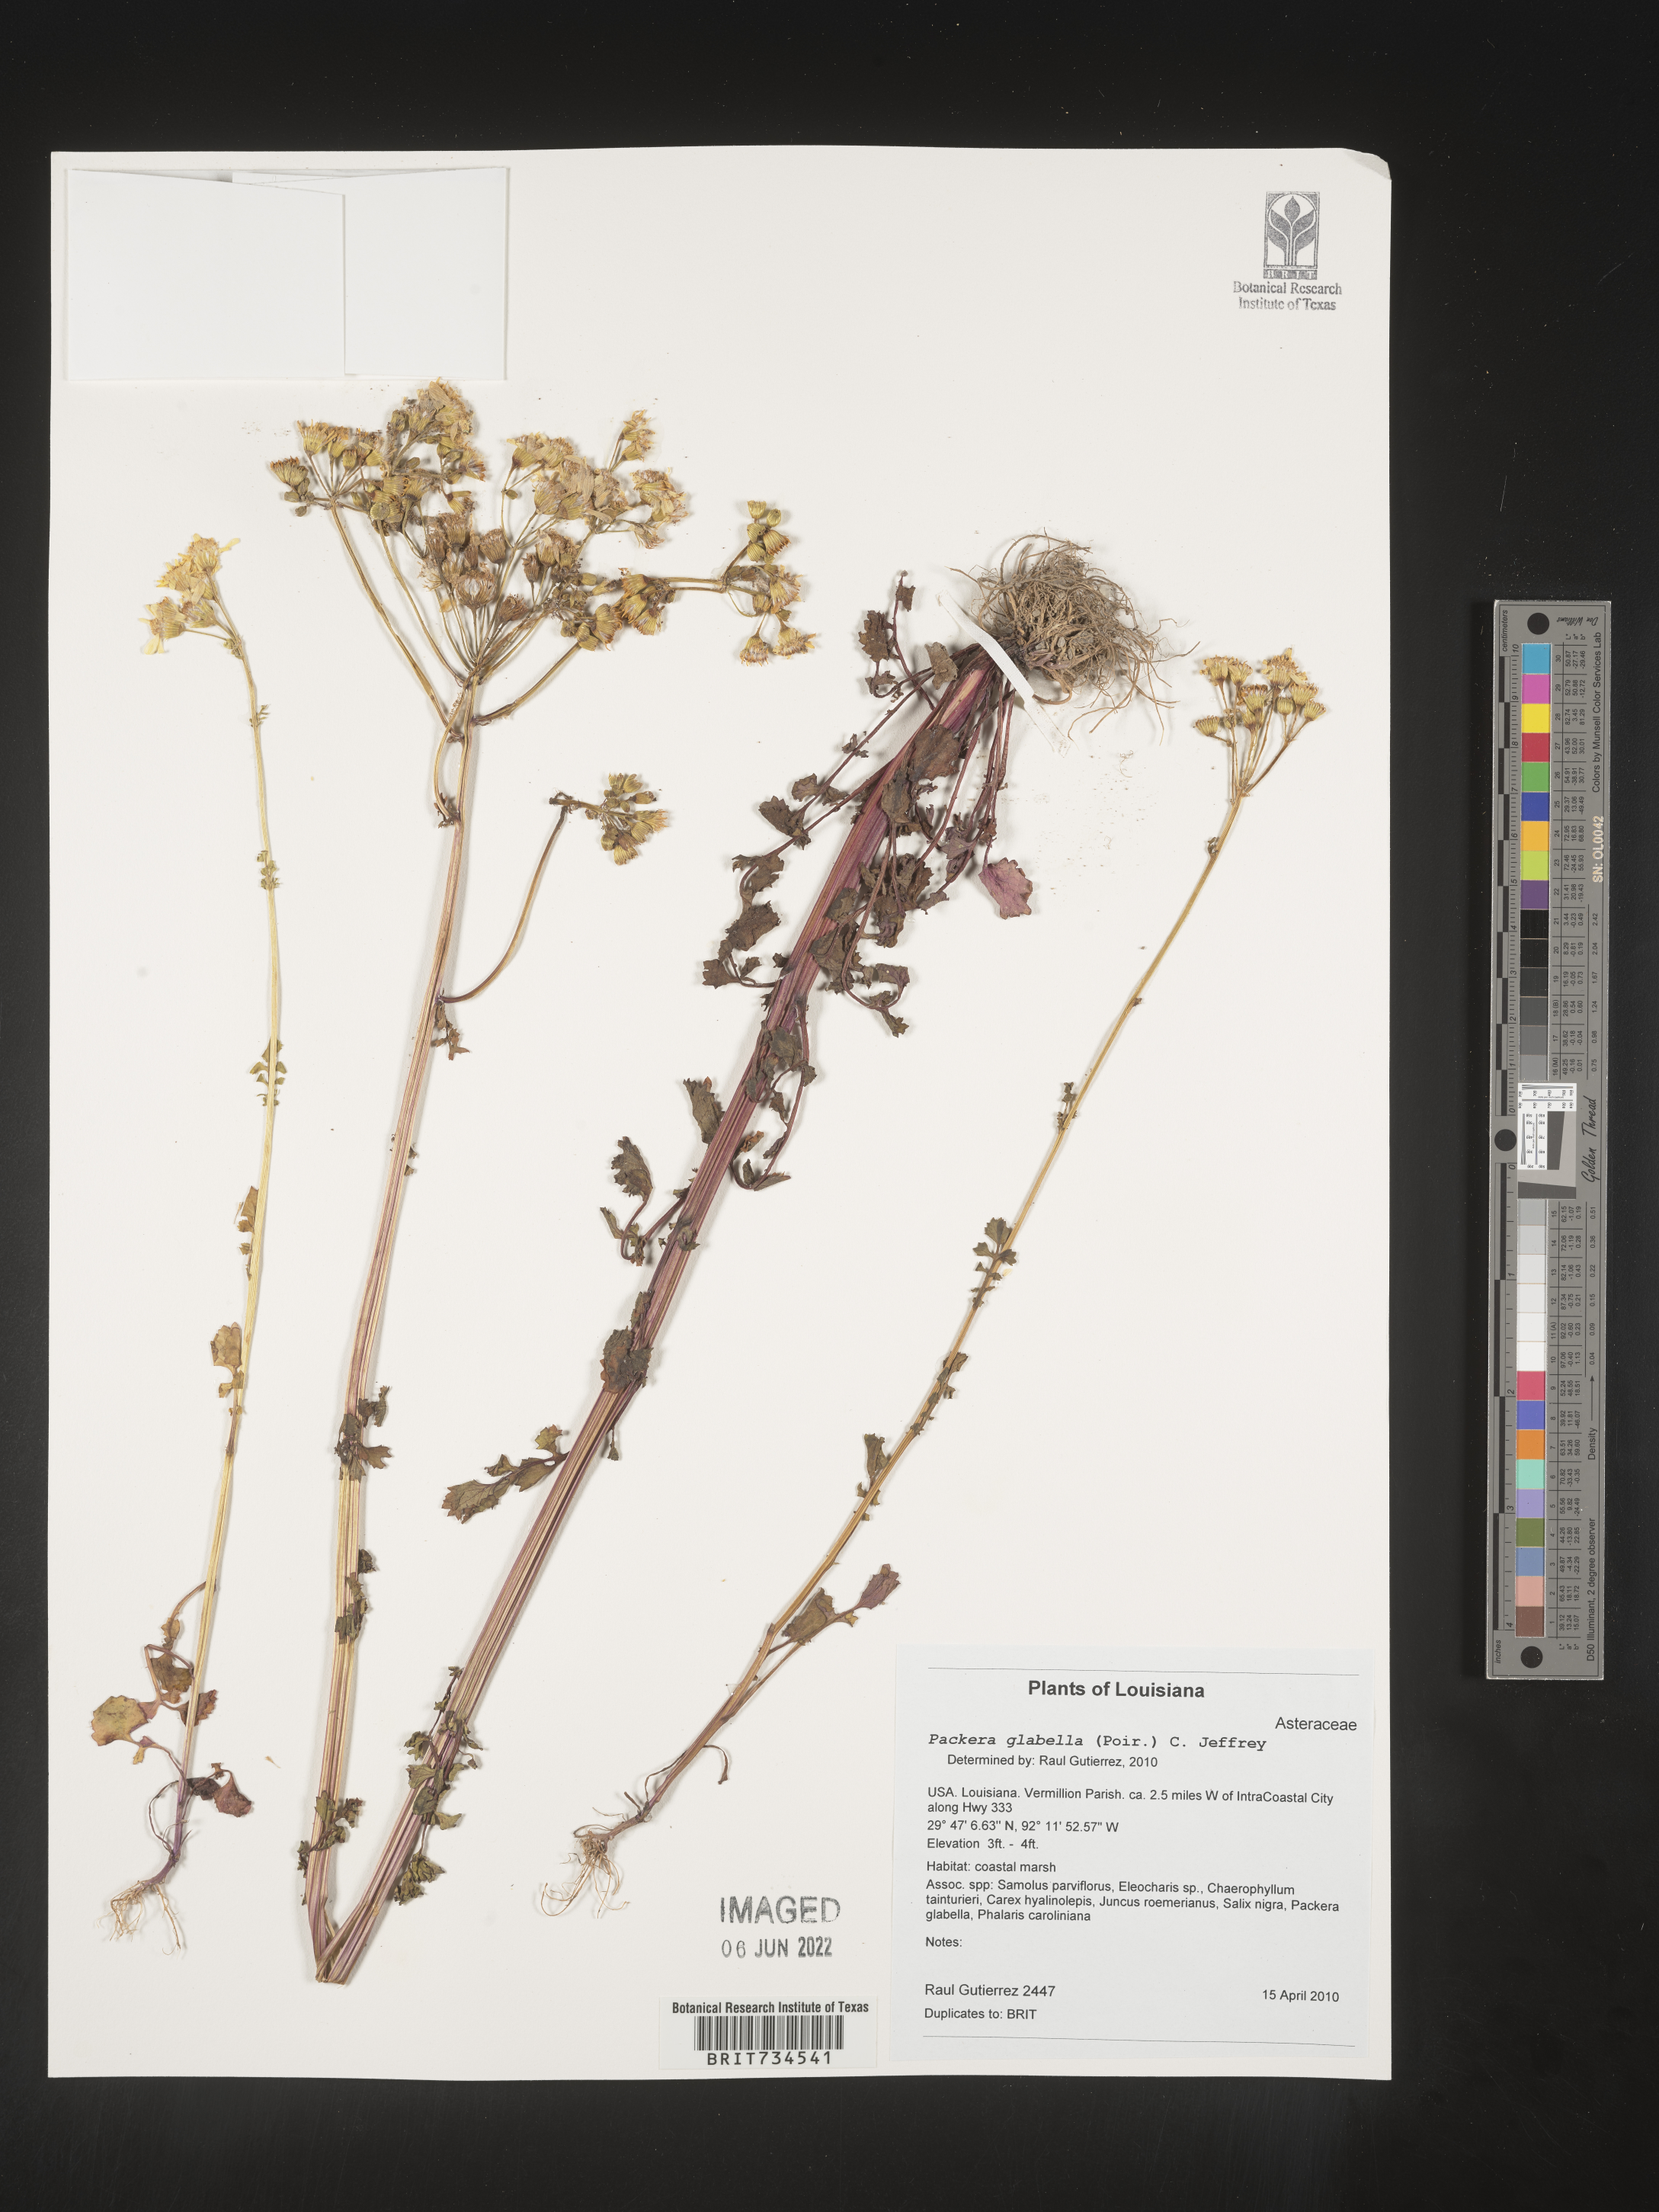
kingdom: Plantae
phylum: Tracheophyta
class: Magnoliopsida
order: Asterales
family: Asteraceae
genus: Packera
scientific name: Packera glabella
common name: Butterweed
